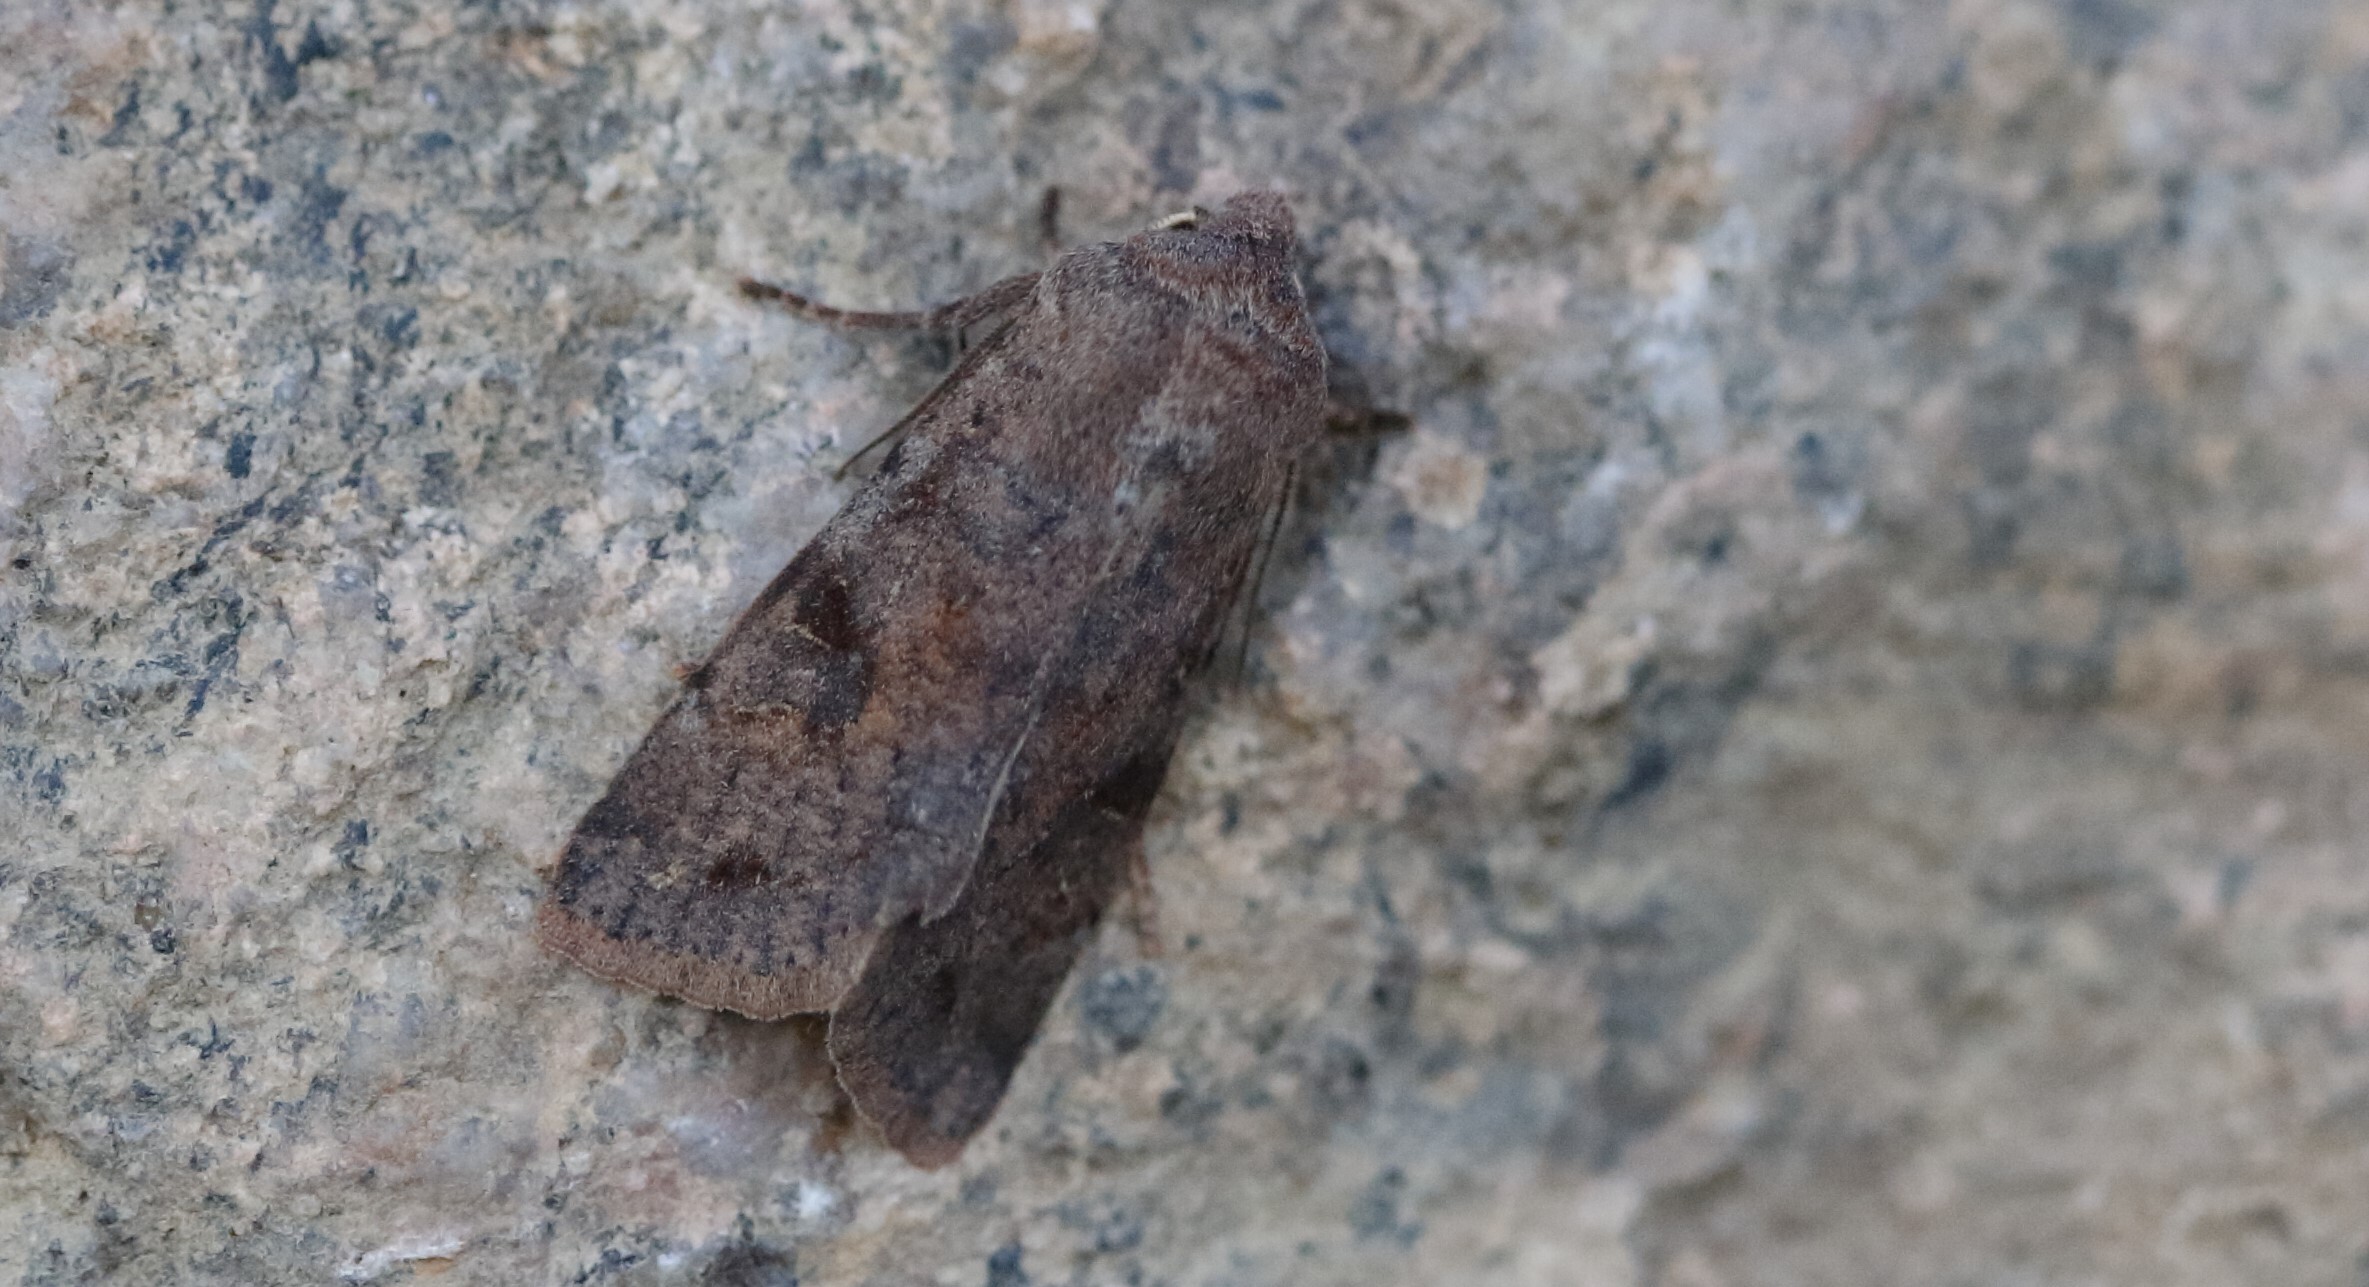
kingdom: Animalia
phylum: Arthropoda
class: Insecta
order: Lepidoptera
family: Noctuidae
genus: Orthosia
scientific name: Orthosia incerta
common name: Clouded drab
